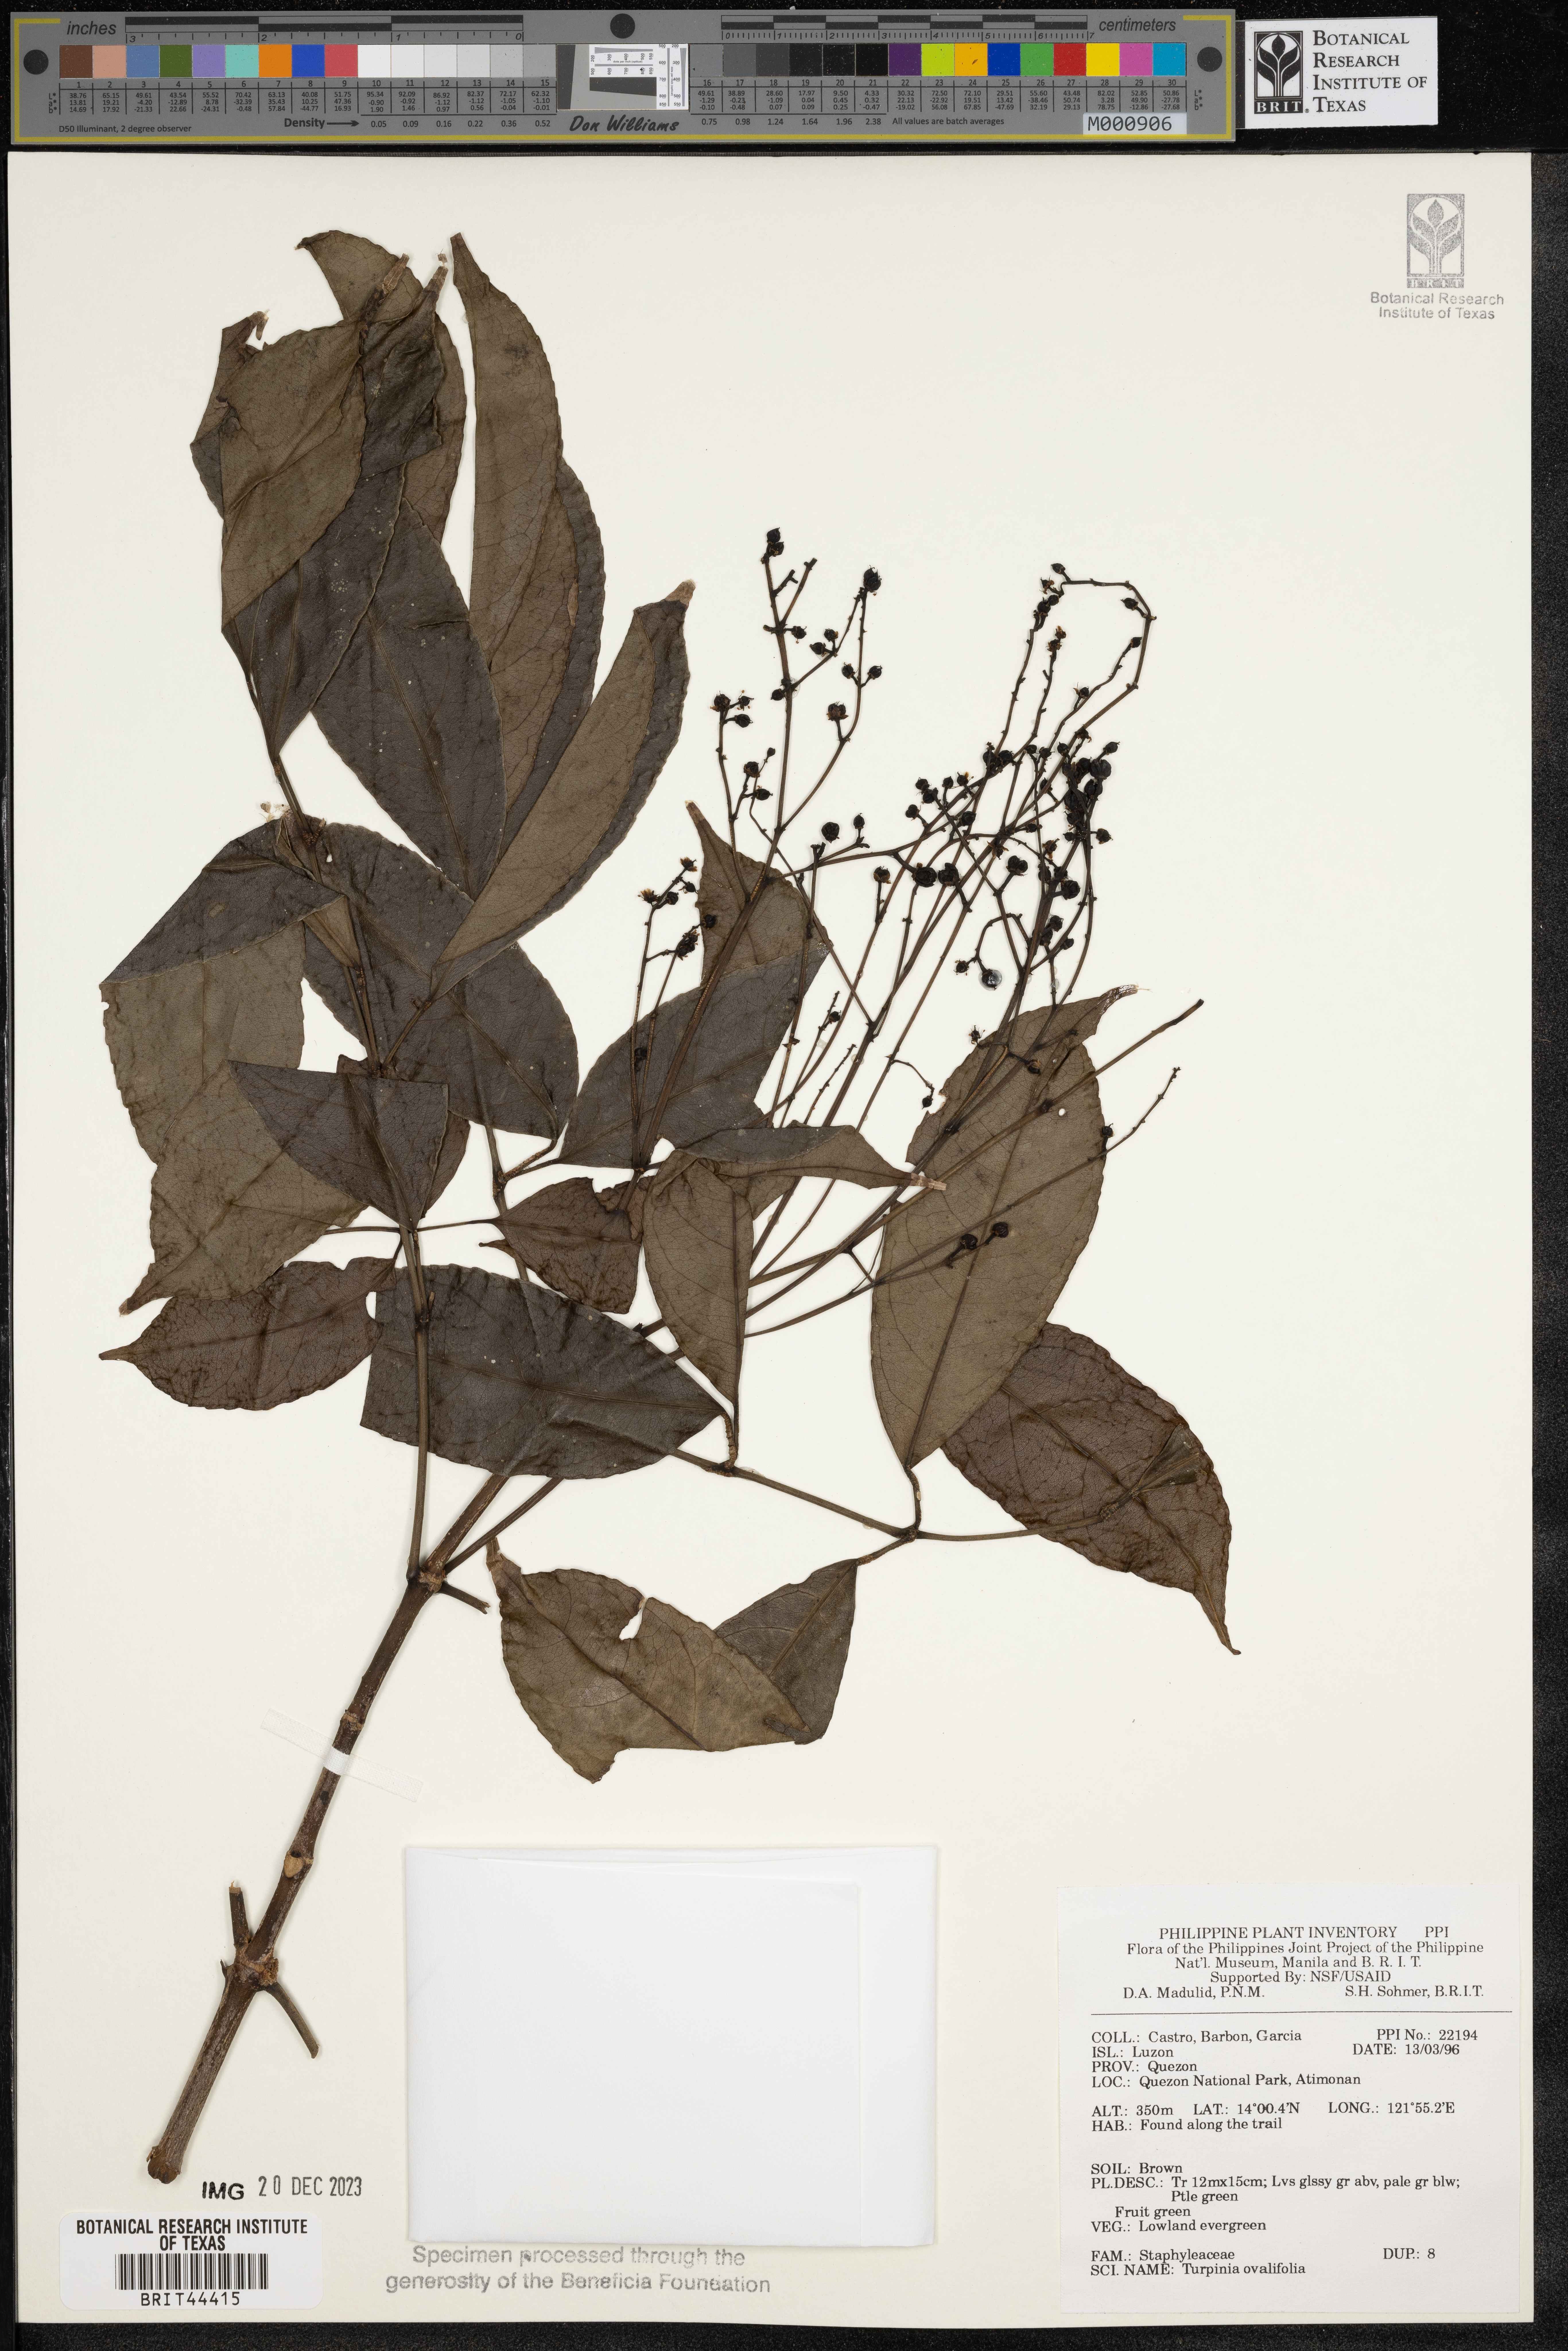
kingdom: Plantae
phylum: Tracheophyta
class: Magnoliopsida
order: Crossosomatales
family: Staphyleaceae
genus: Dalrympelea
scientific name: Dalrympelea trifoliata
